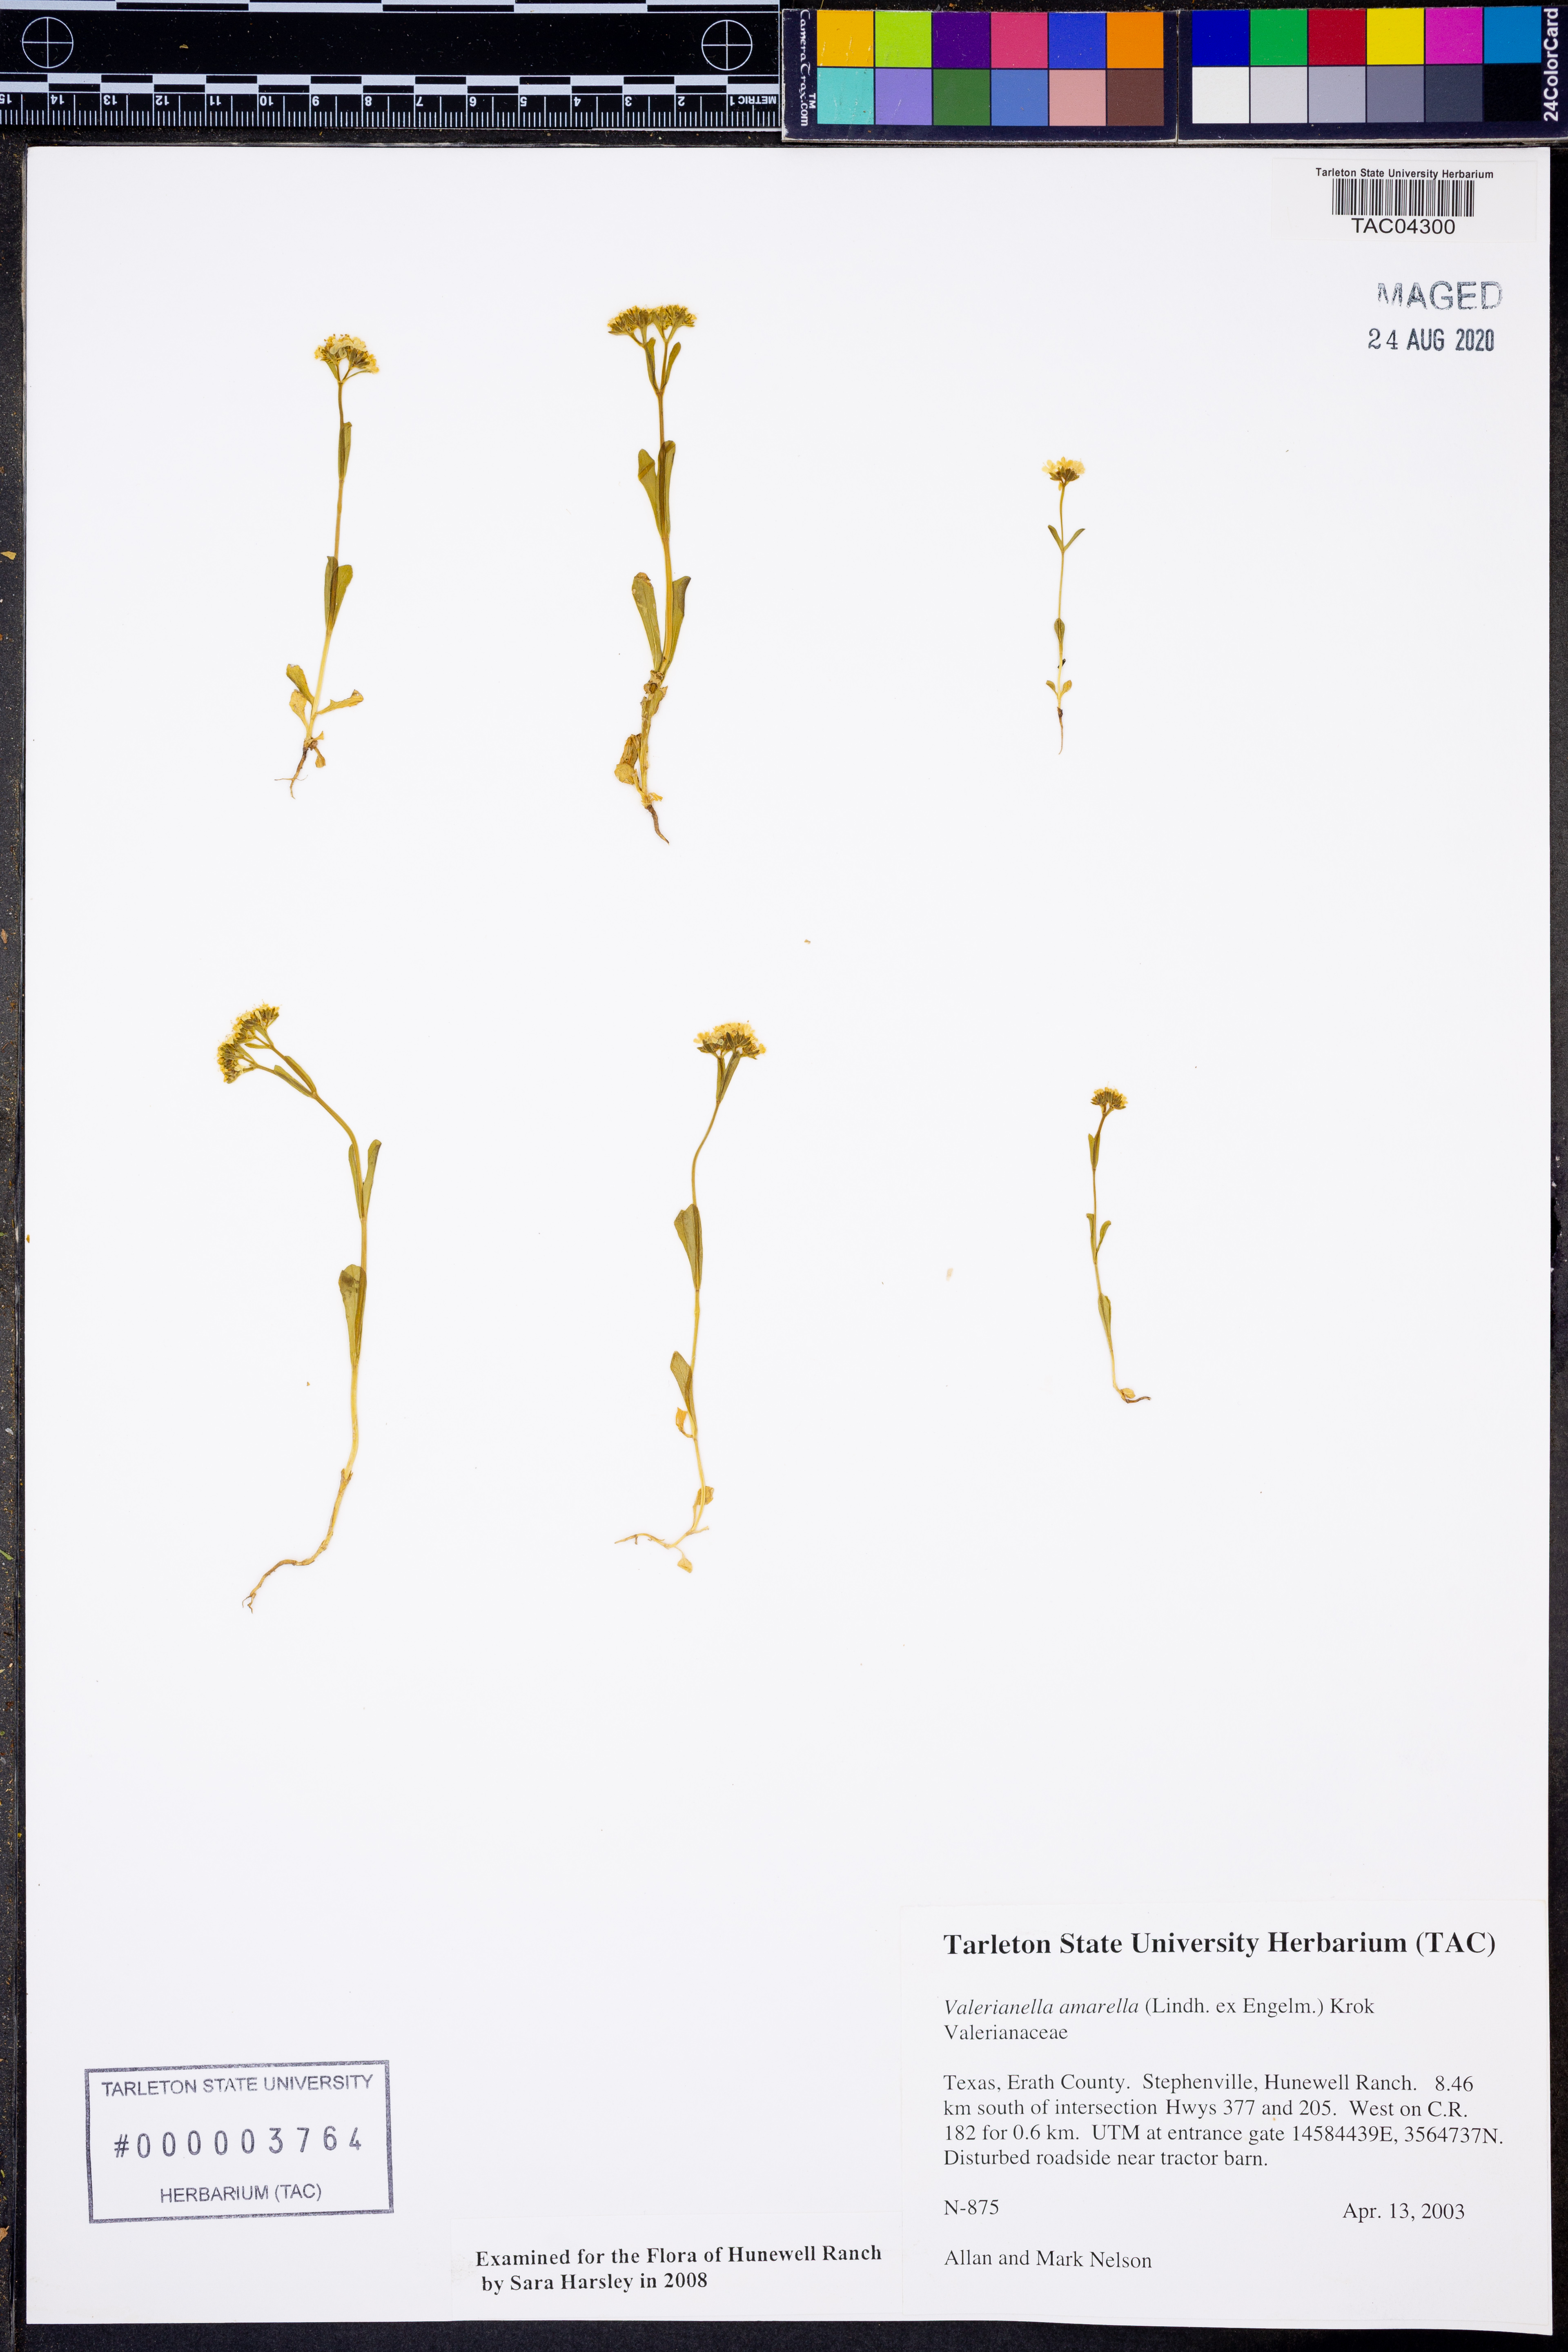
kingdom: Plantae
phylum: Tracheophyta
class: Magnoliopsida
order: Dipsacales
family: Caprifoliaceae
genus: Valerianella
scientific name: Valerianella amarella
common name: Hariy cornsalad
